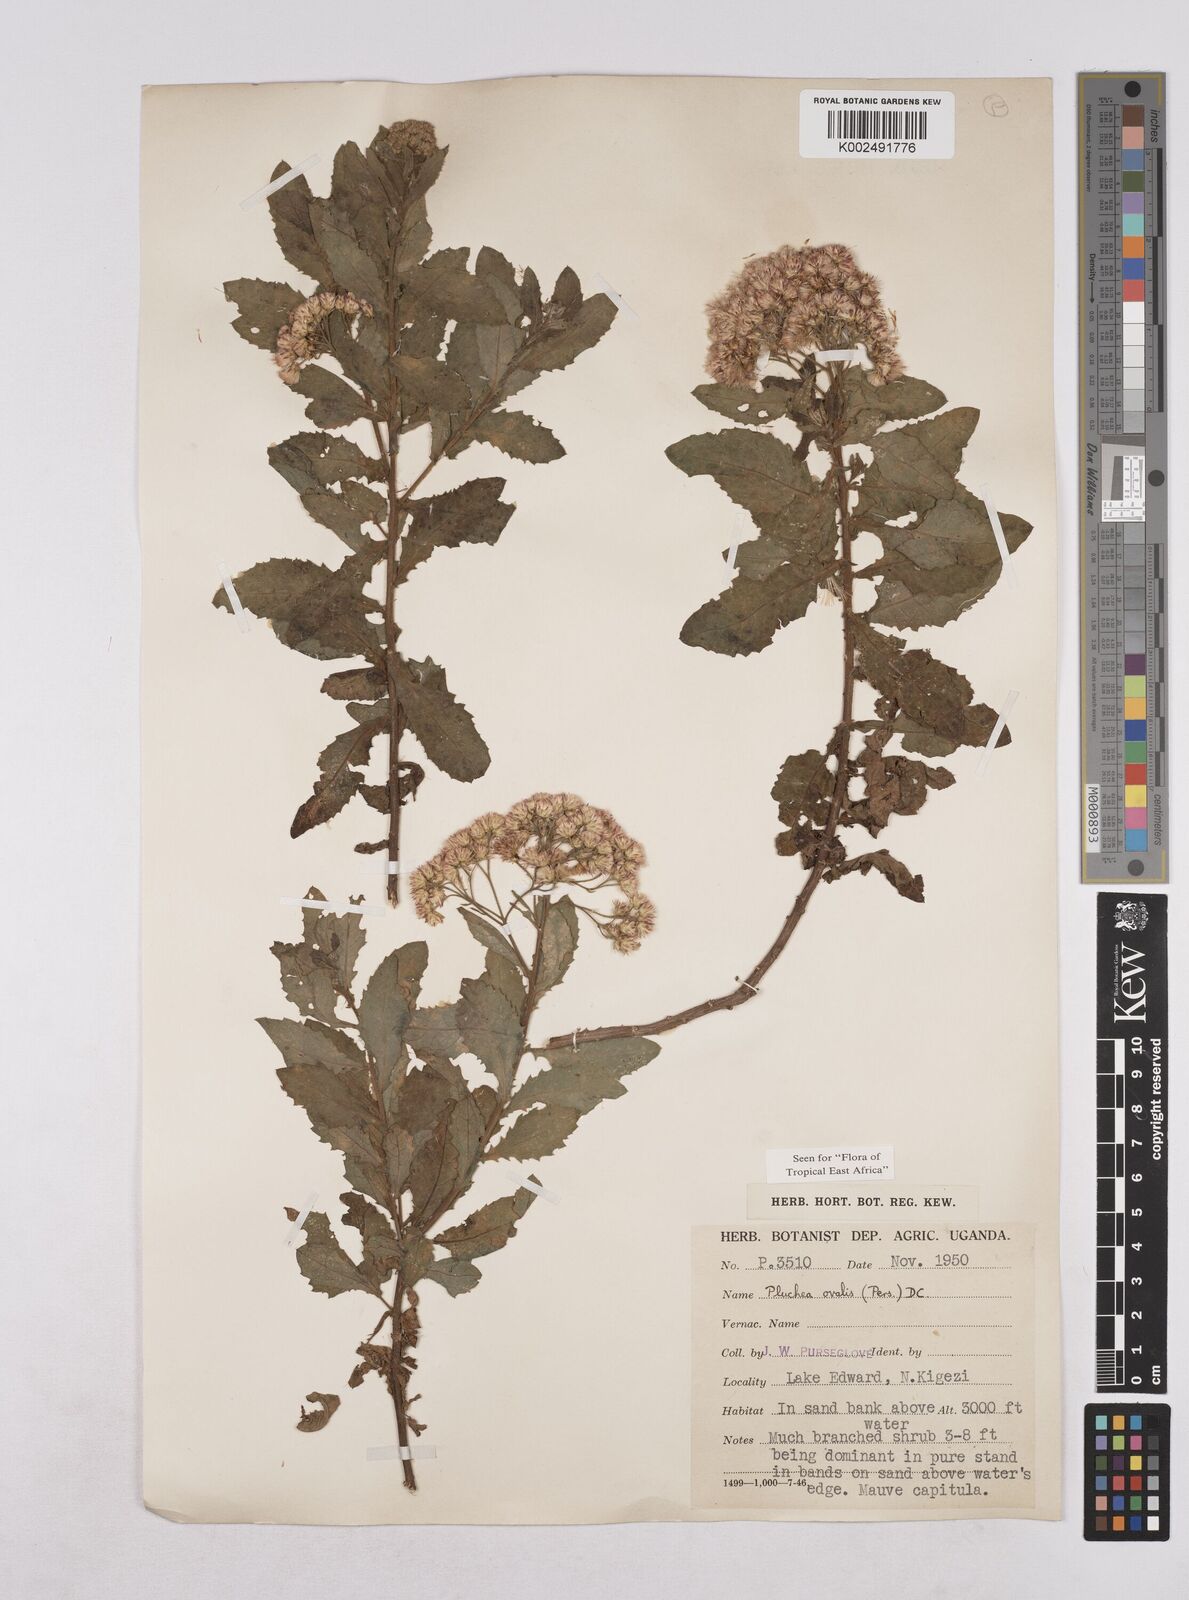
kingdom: Plantae
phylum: Tracheophyta
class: Magnoliopsida
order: Asterales
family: Asteraceae
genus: Pluchea
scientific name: Pluchea dioscoridis
